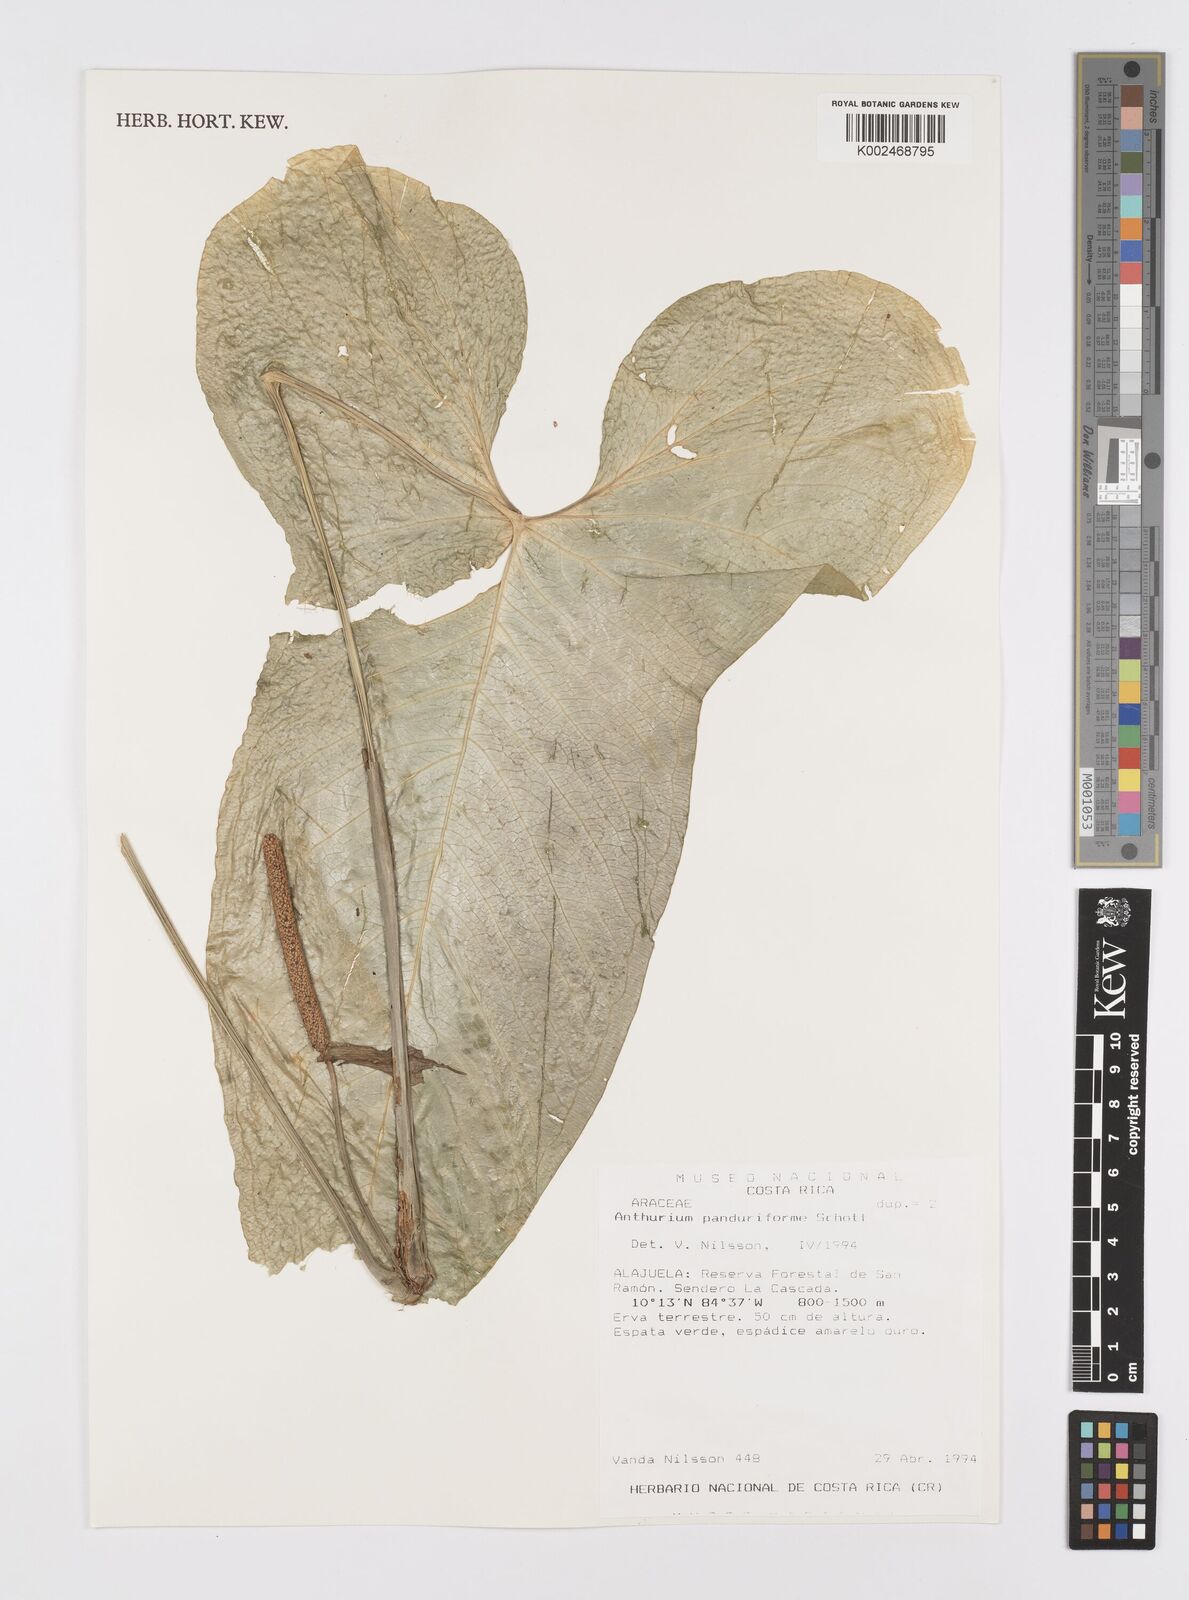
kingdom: Plantae
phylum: Tracheophyta
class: Liliopsida
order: Alismatales
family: Araceae
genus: Anthurium
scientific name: Anthurium panduriforme
